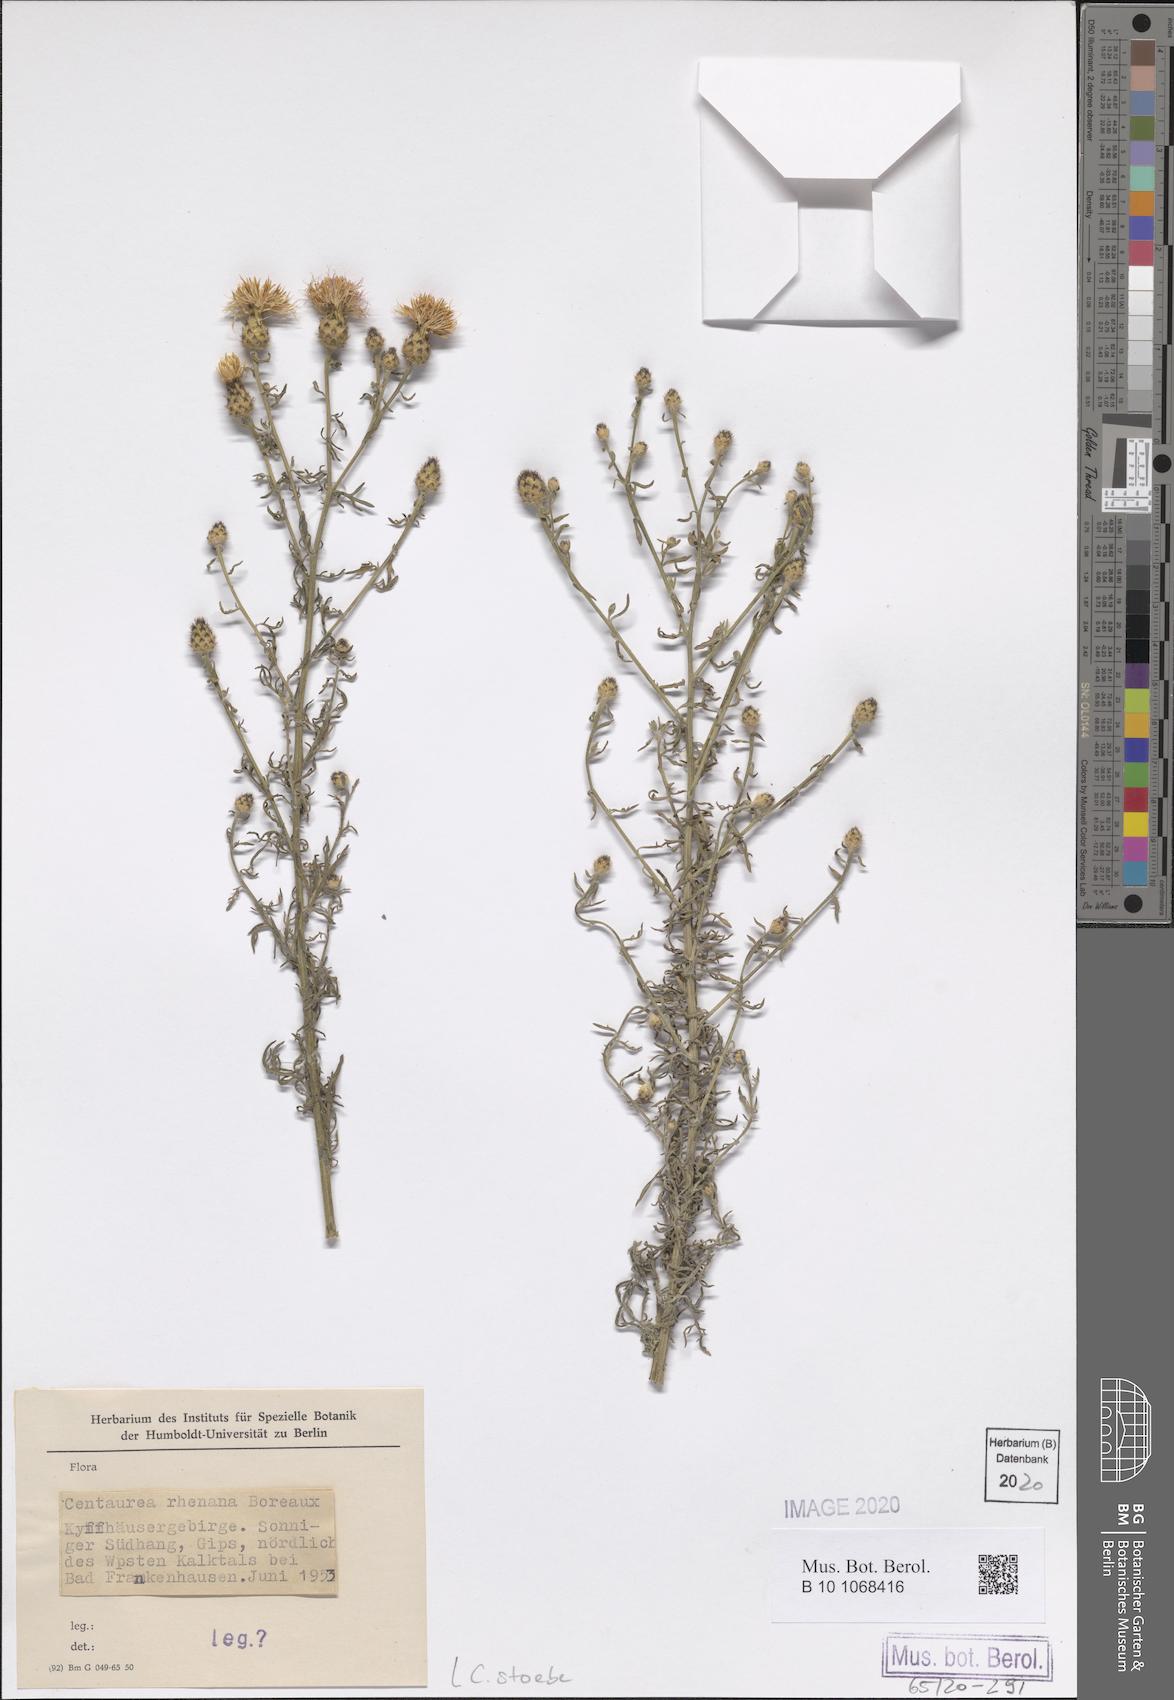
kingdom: Plantae
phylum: Tracheophyta
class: Magnoliopsida
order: Asterales
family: Asteraceae
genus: Centaurea
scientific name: Centaurea stoebe
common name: Spotted knapweed
